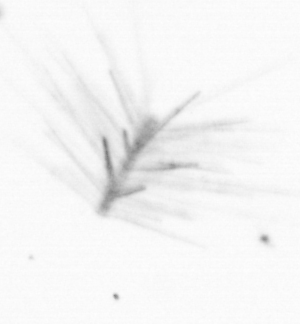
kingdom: Chromista
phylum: Ochrophyta
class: Bacillariophyceae
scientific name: Bacillariophyceae
